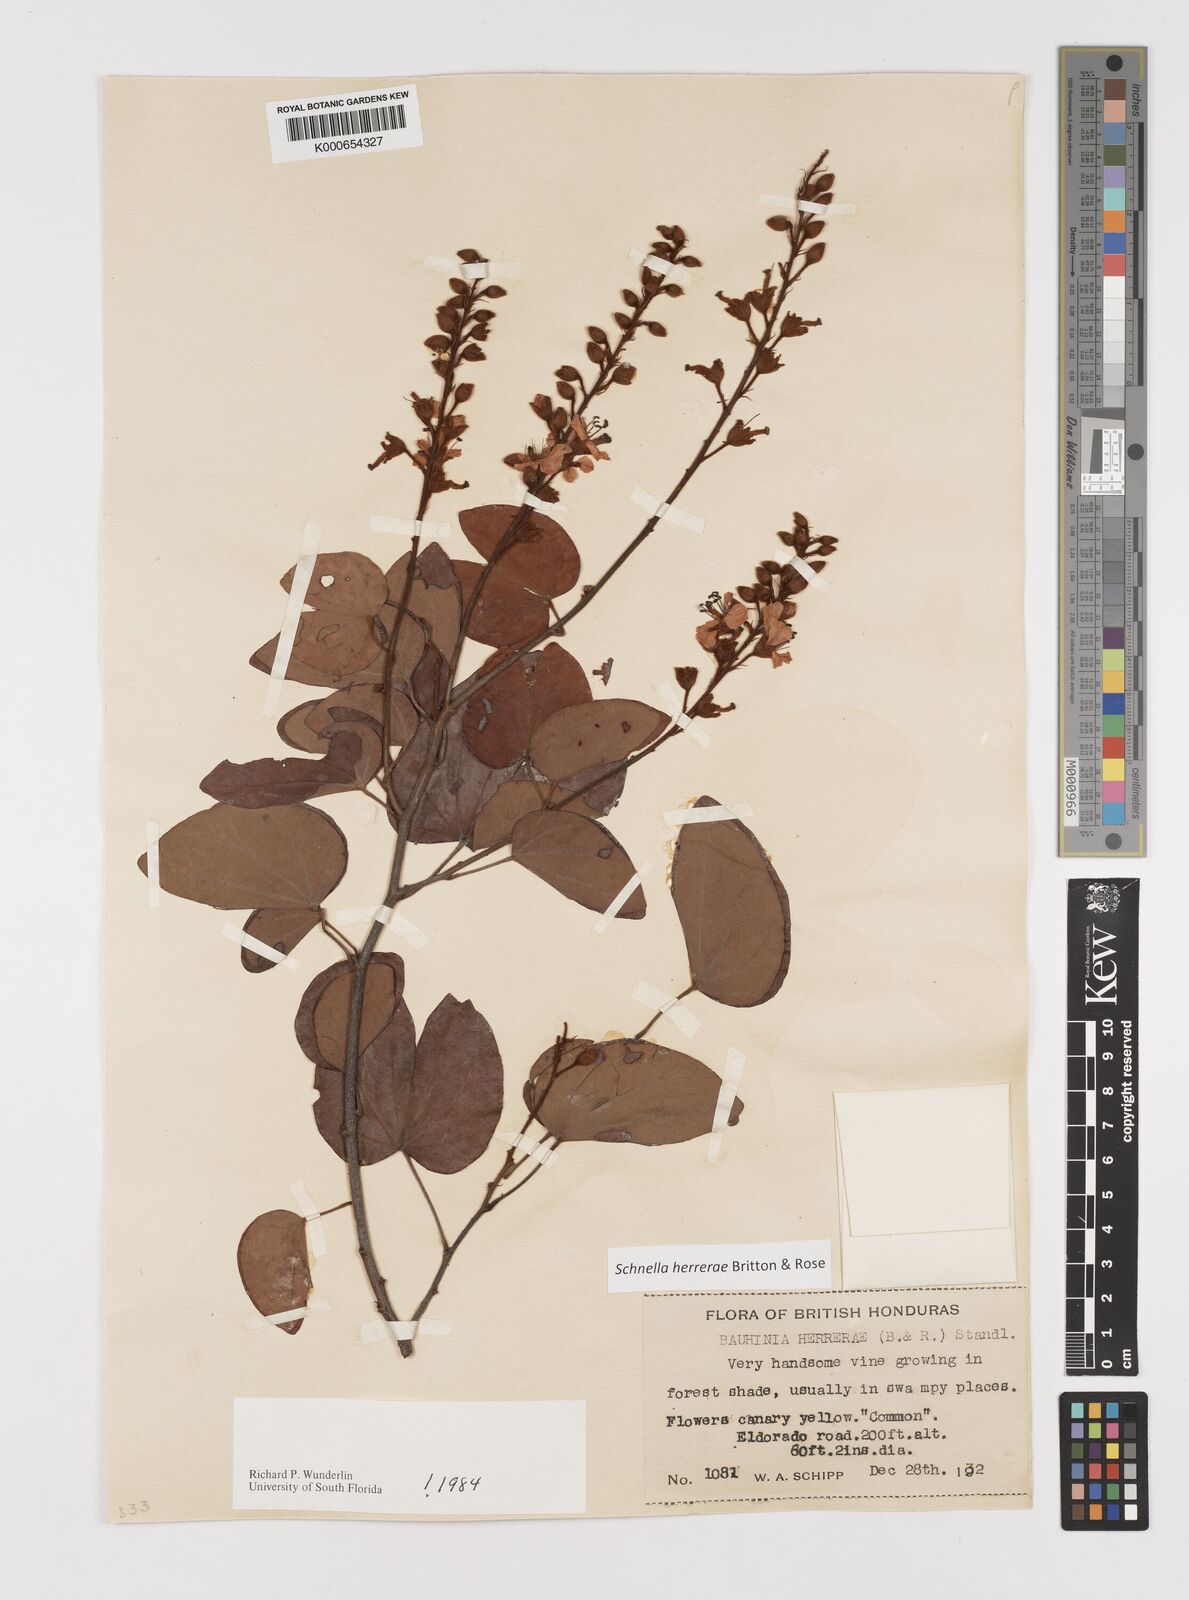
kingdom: Plantae
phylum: Tracheophyta
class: Magnoliopsida
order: Fabales
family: Fabaceae
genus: Schnella
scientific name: Schnella herrerae
